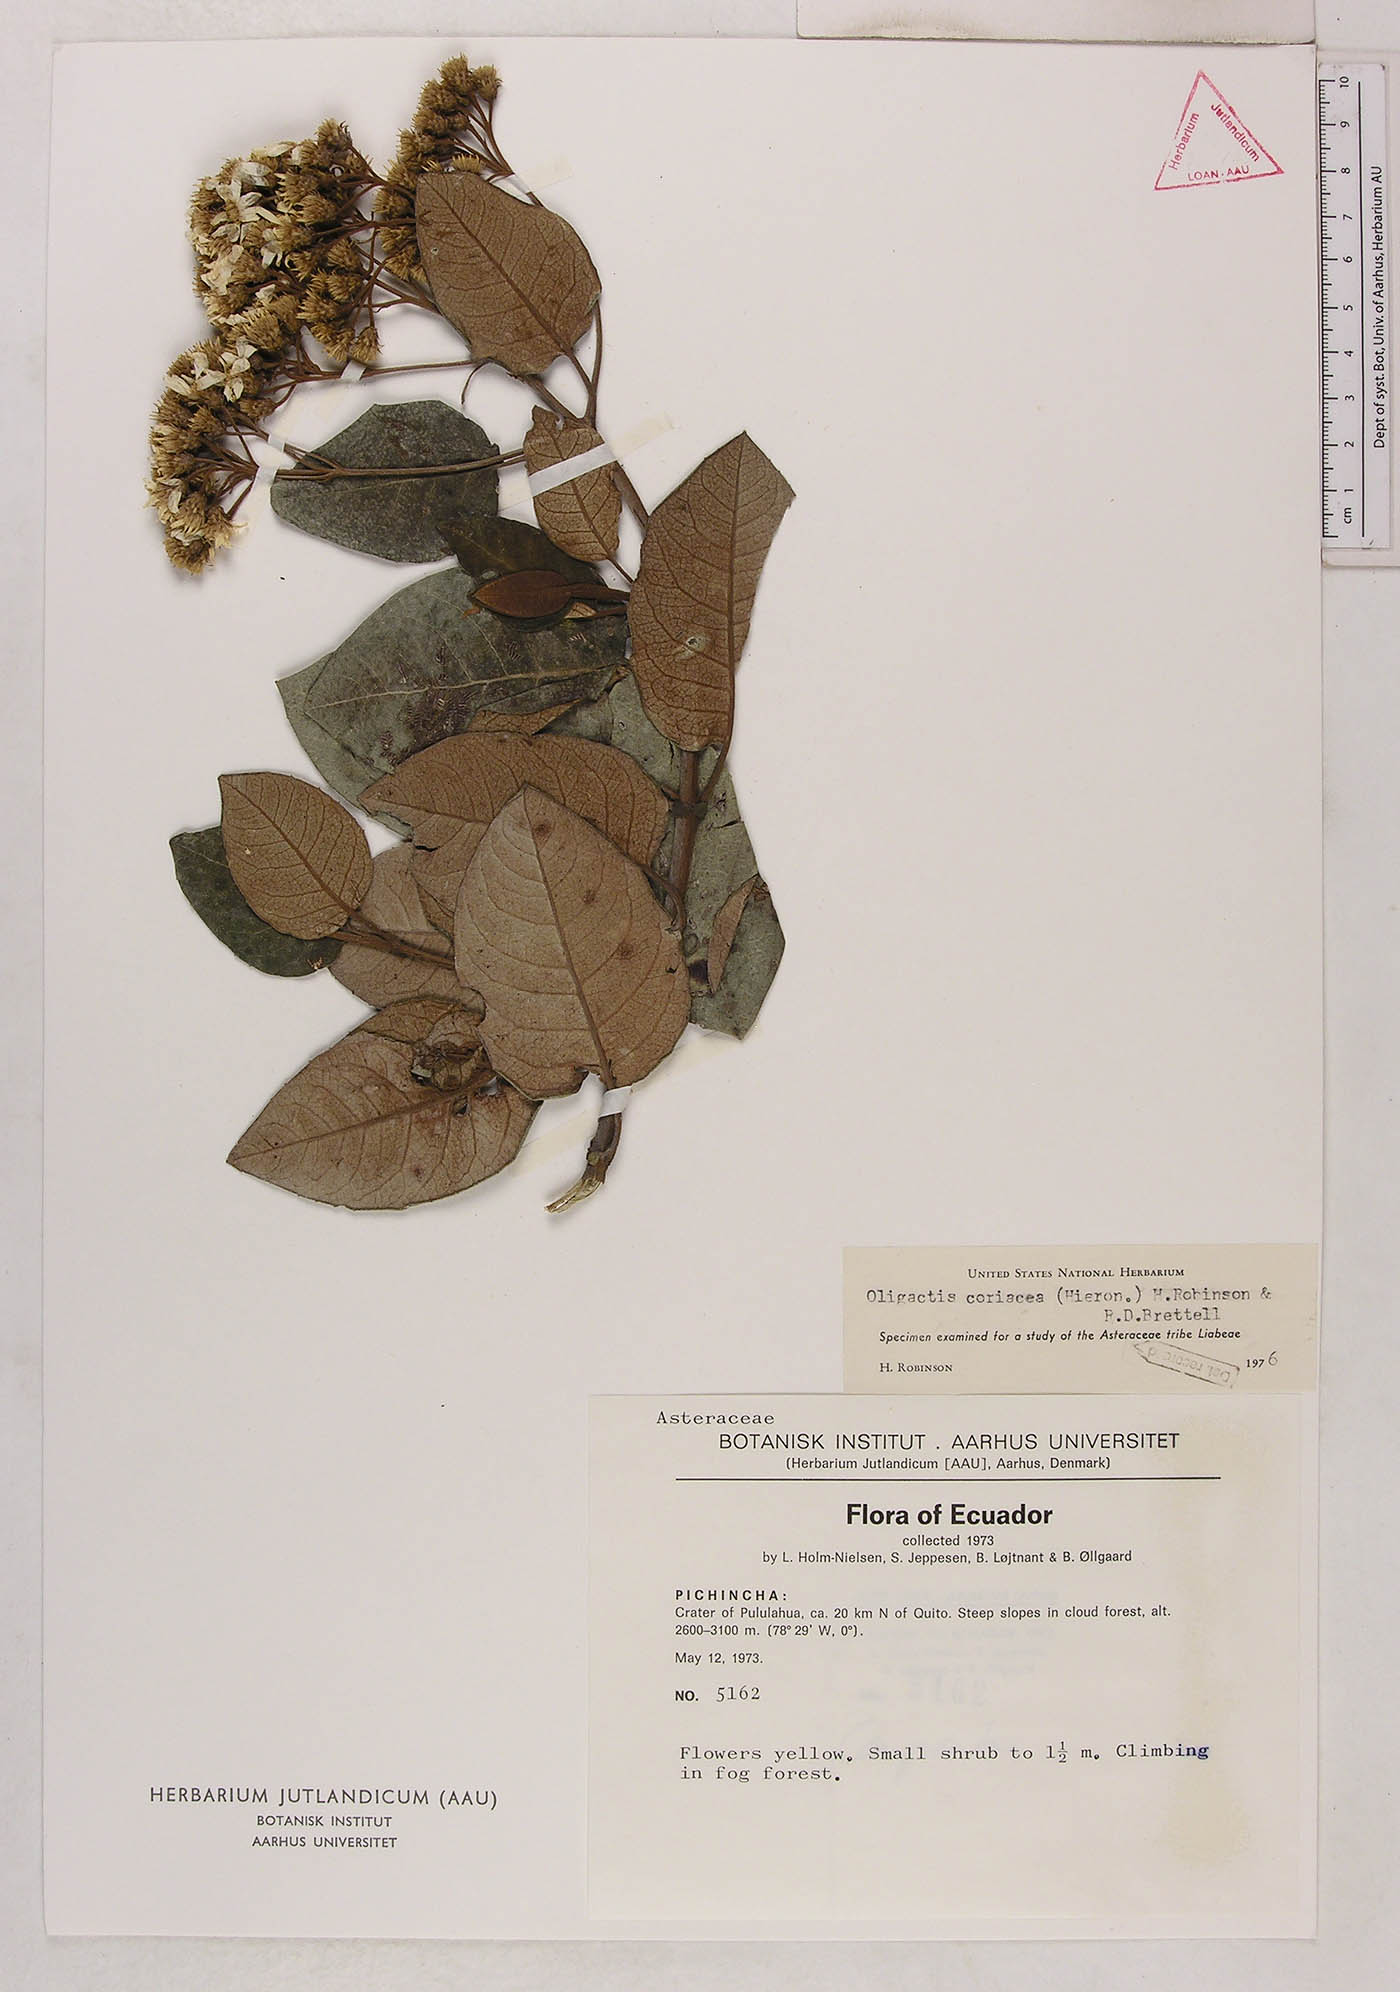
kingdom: Plantae
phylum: Tracheophyta
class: Magnoliopsida
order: Asterales
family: Asteraceae
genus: Sampera
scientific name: Sampera coriacea
